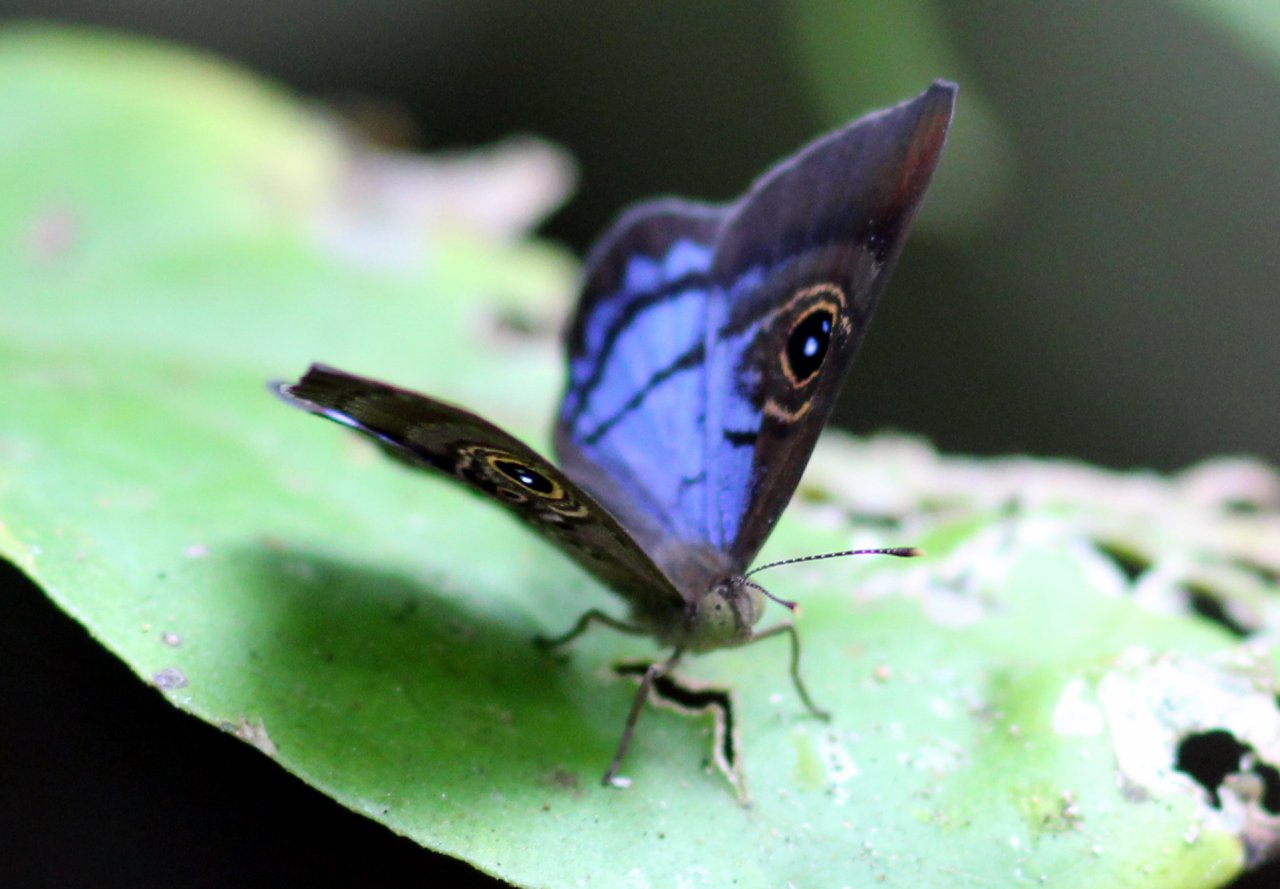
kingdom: Animalia
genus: Mesosemia
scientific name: Mesosemia lamachus
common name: Purple-washed Eyed-Metalmark
